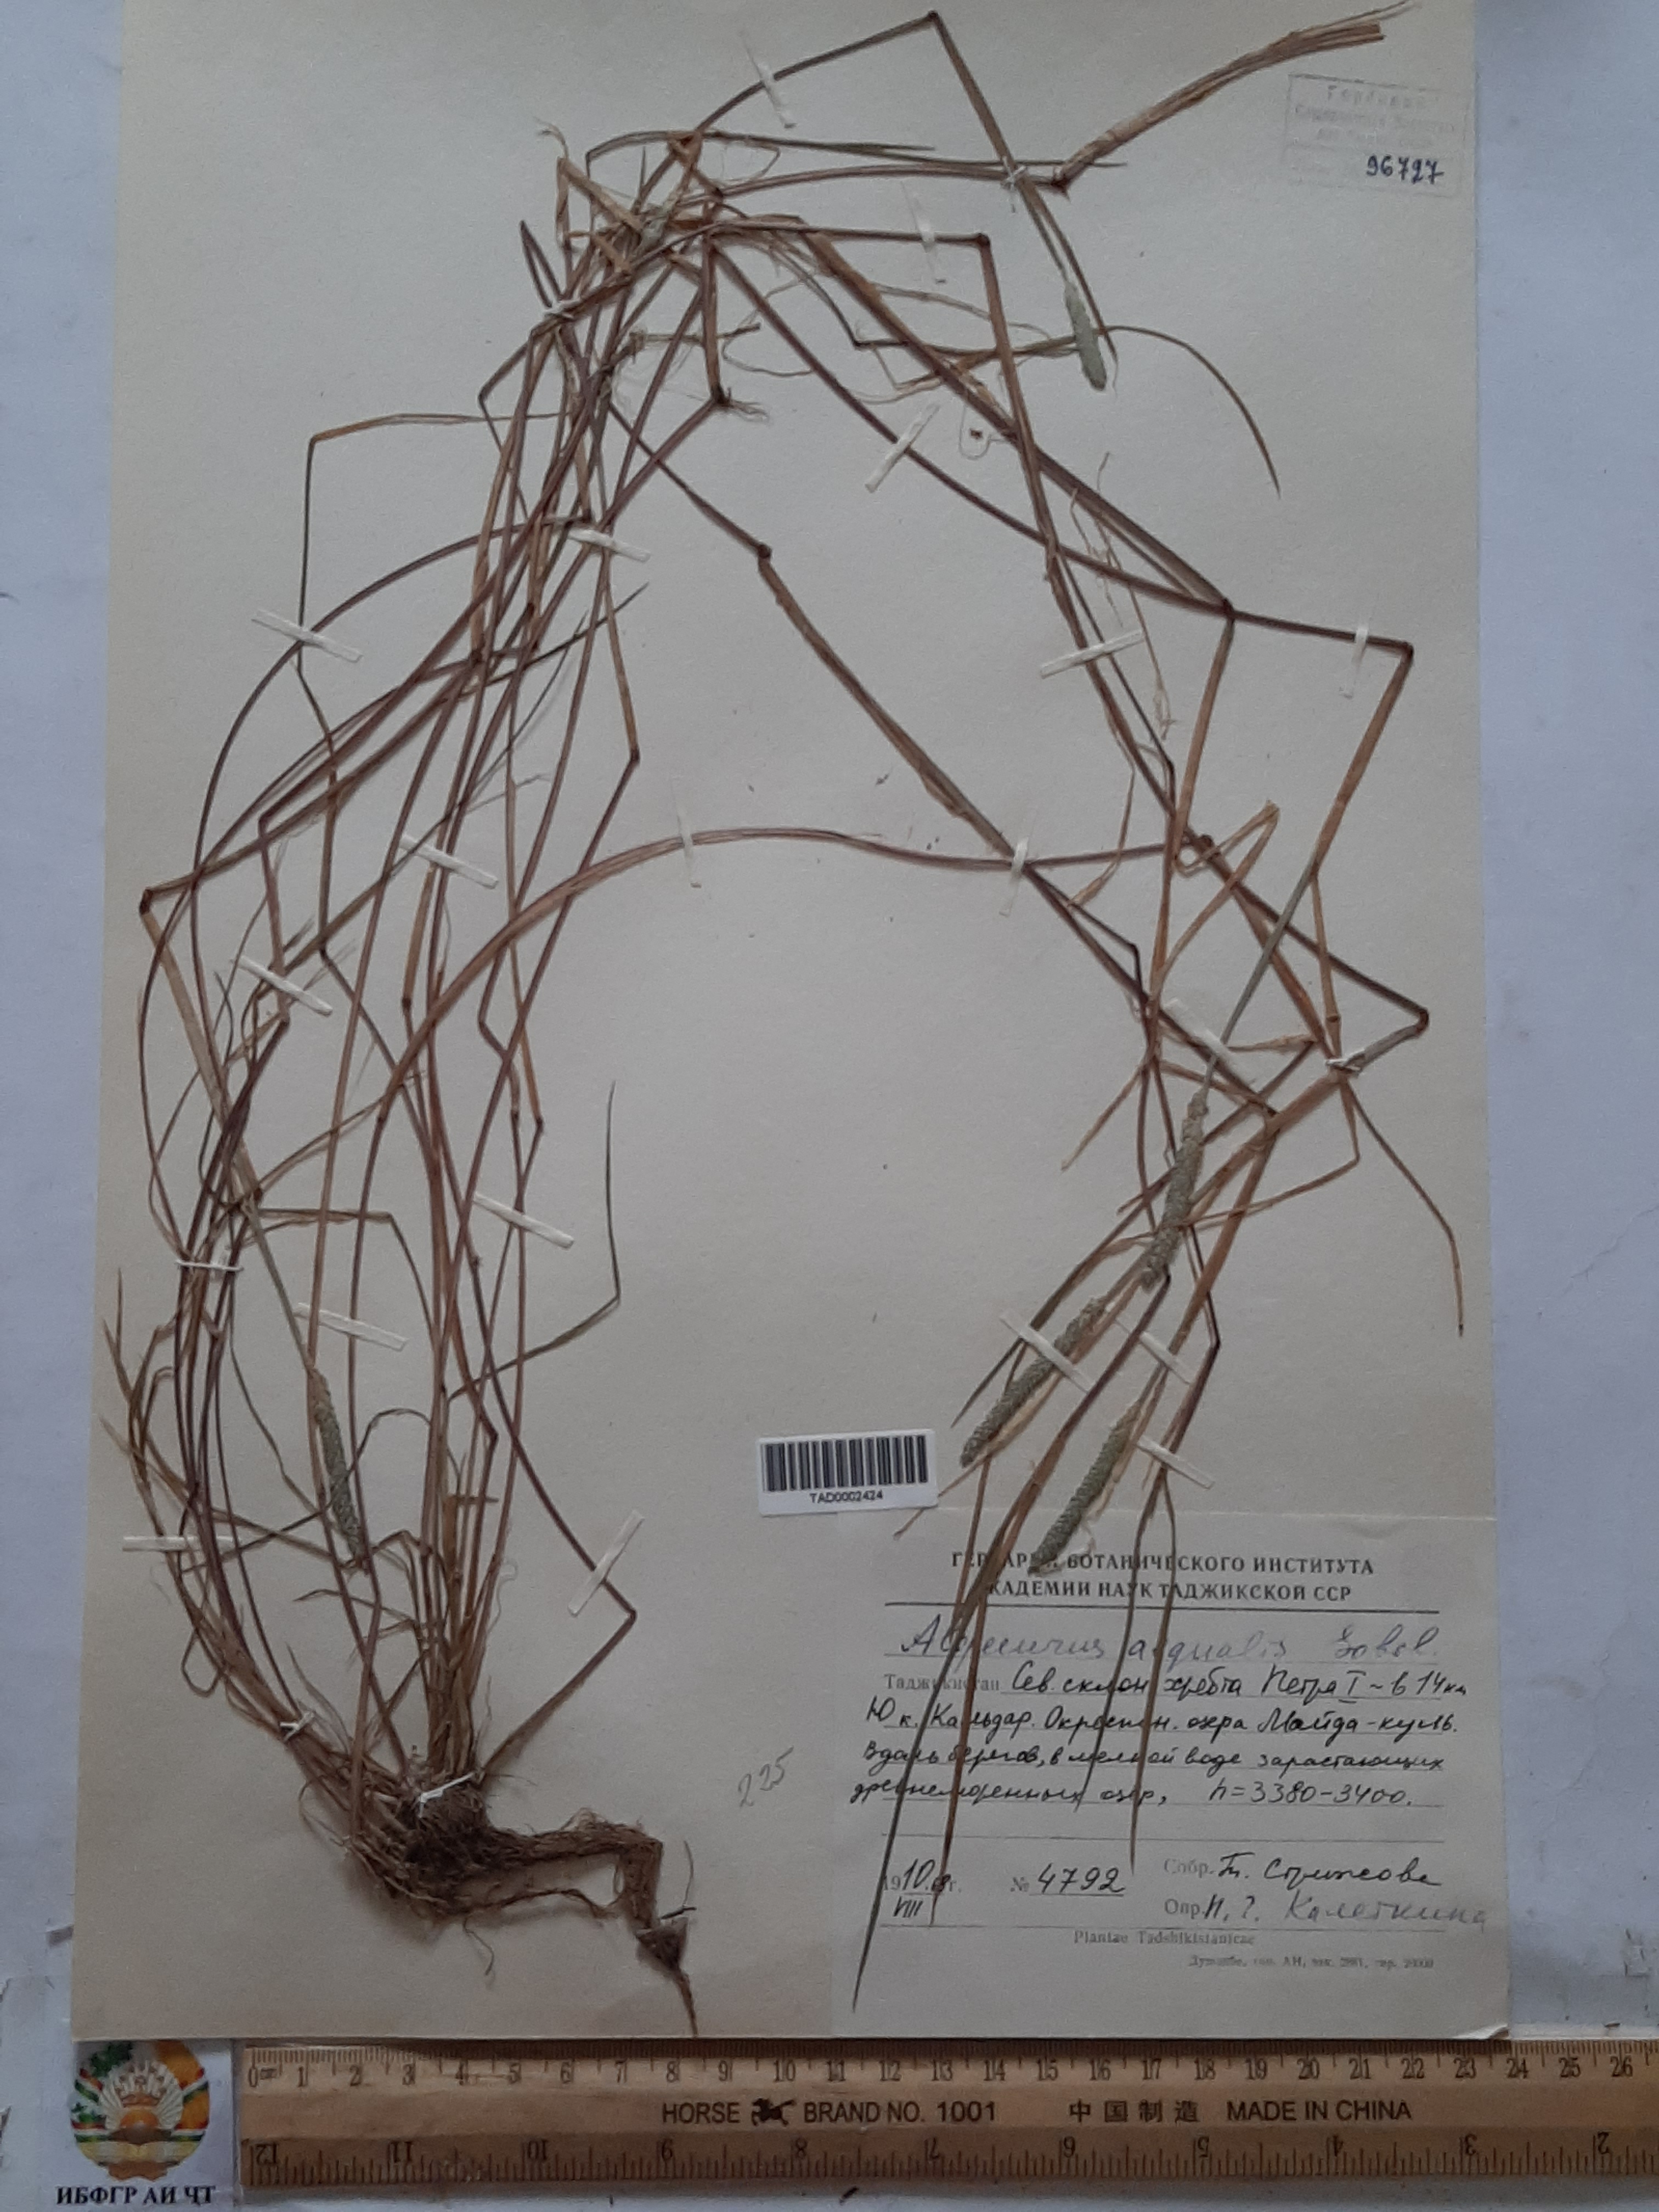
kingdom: Plantae
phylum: Tracheophyta
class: Liliopsida
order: Poales
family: Poaceae
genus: Alopecurus
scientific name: Alopecurus aequalis
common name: Orange foxtail
